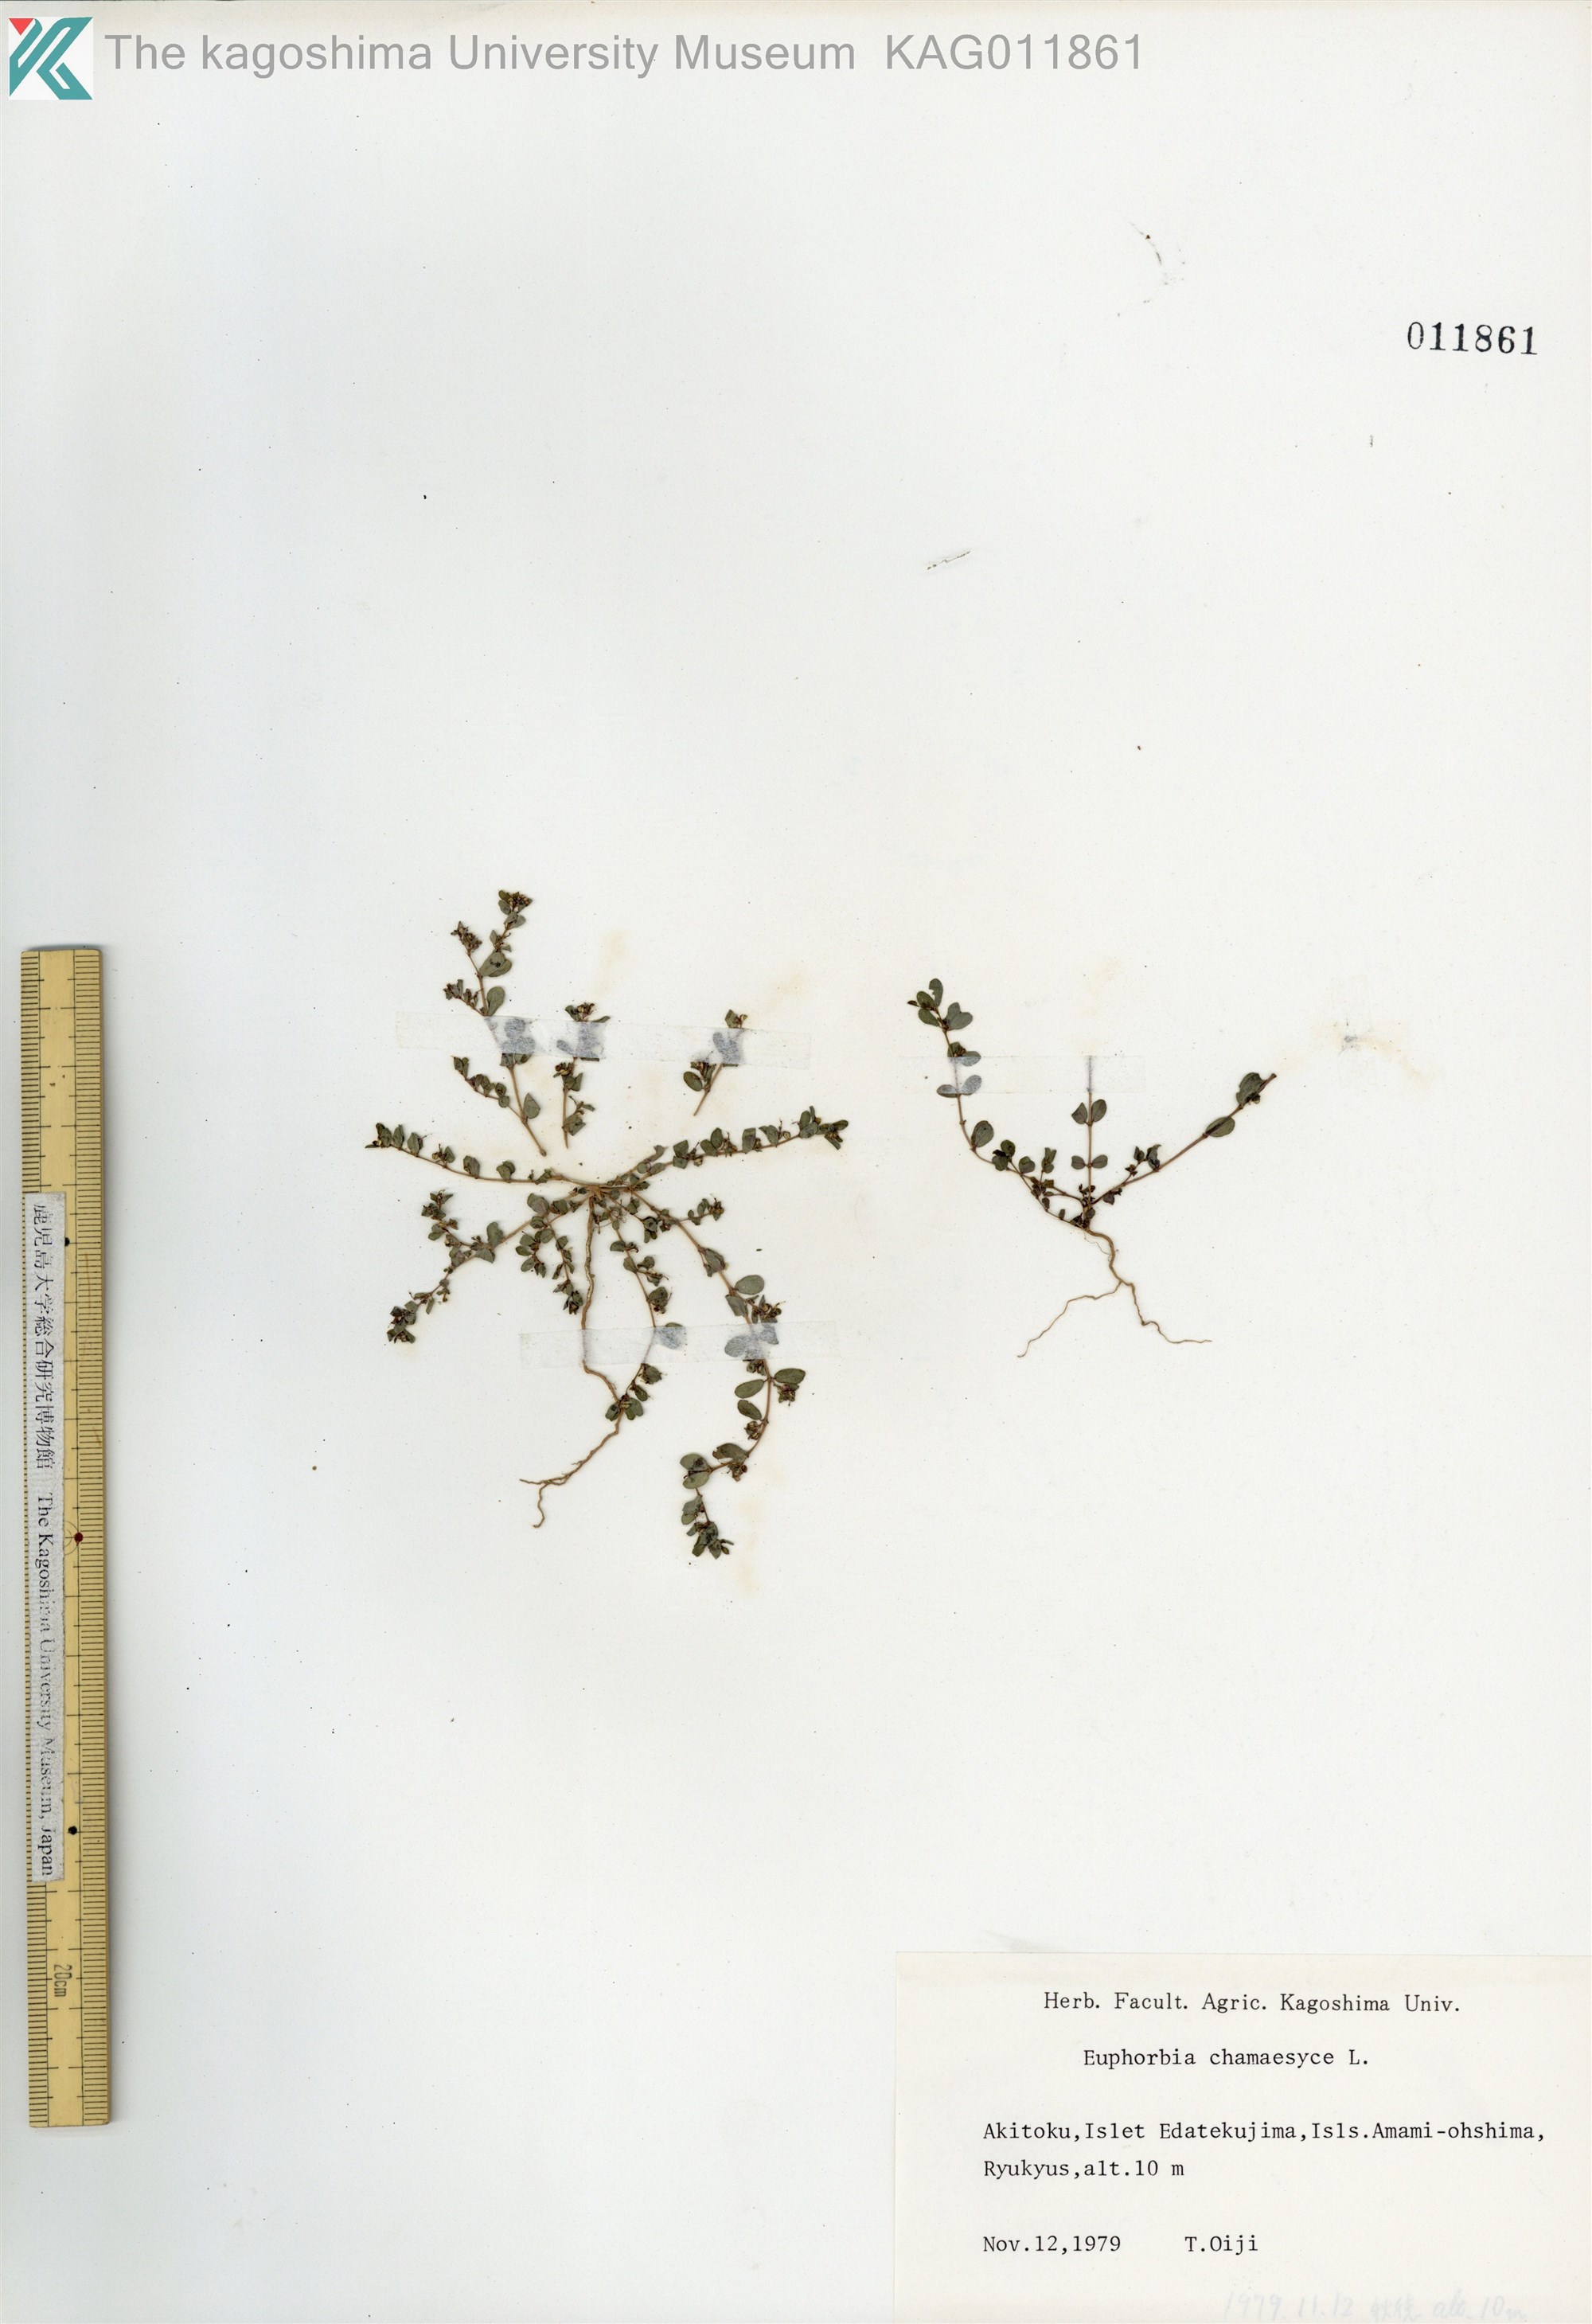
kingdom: Plantae
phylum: Tracheophyta
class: Magnoliopsida
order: Malpighiales
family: Euphorbiaceae
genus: Euphorbia
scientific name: Euphorbia prostrata
